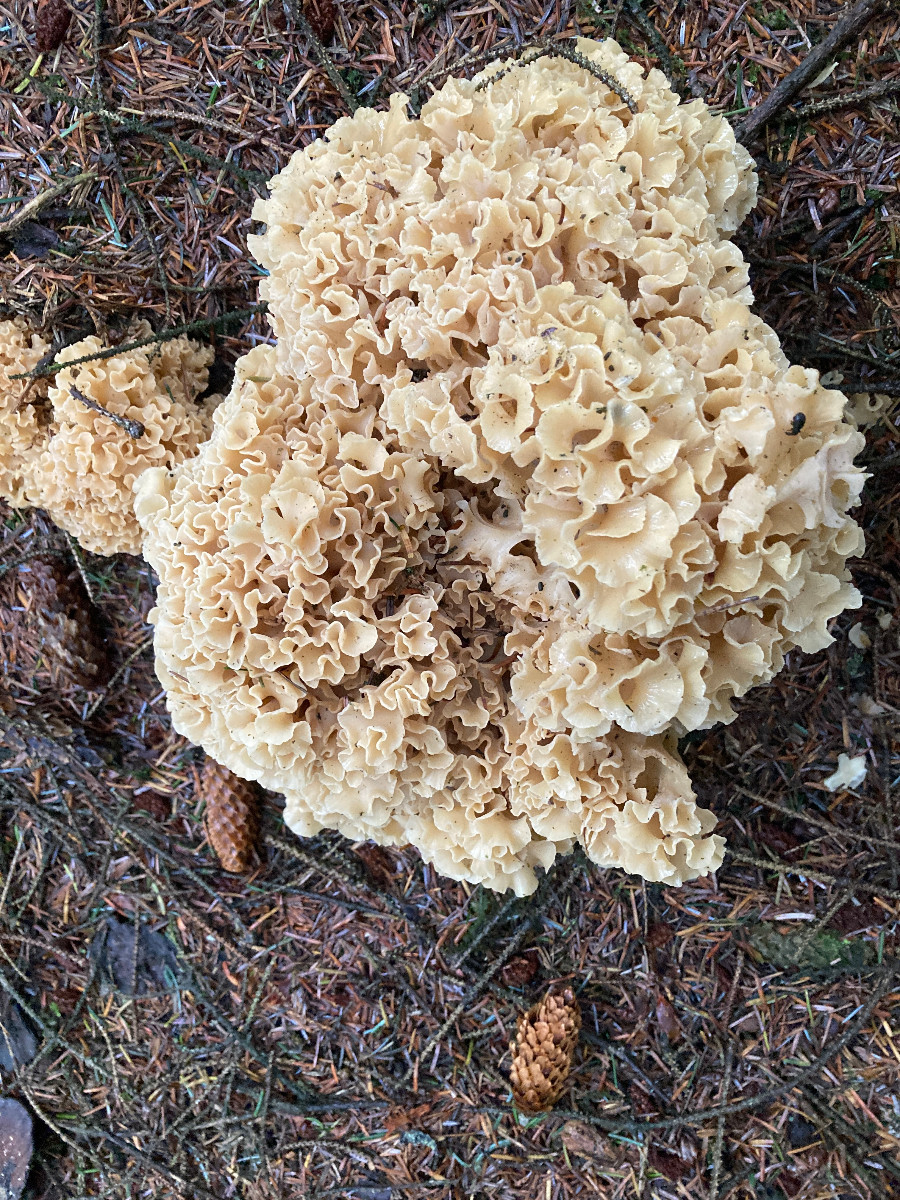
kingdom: Fungi
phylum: Basidiomycota
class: Agaricomycetes
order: Polyporales
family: Sparassidaceae
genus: Sparassis
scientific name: Sparassis crispa
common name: kruset blomkålssvamp
